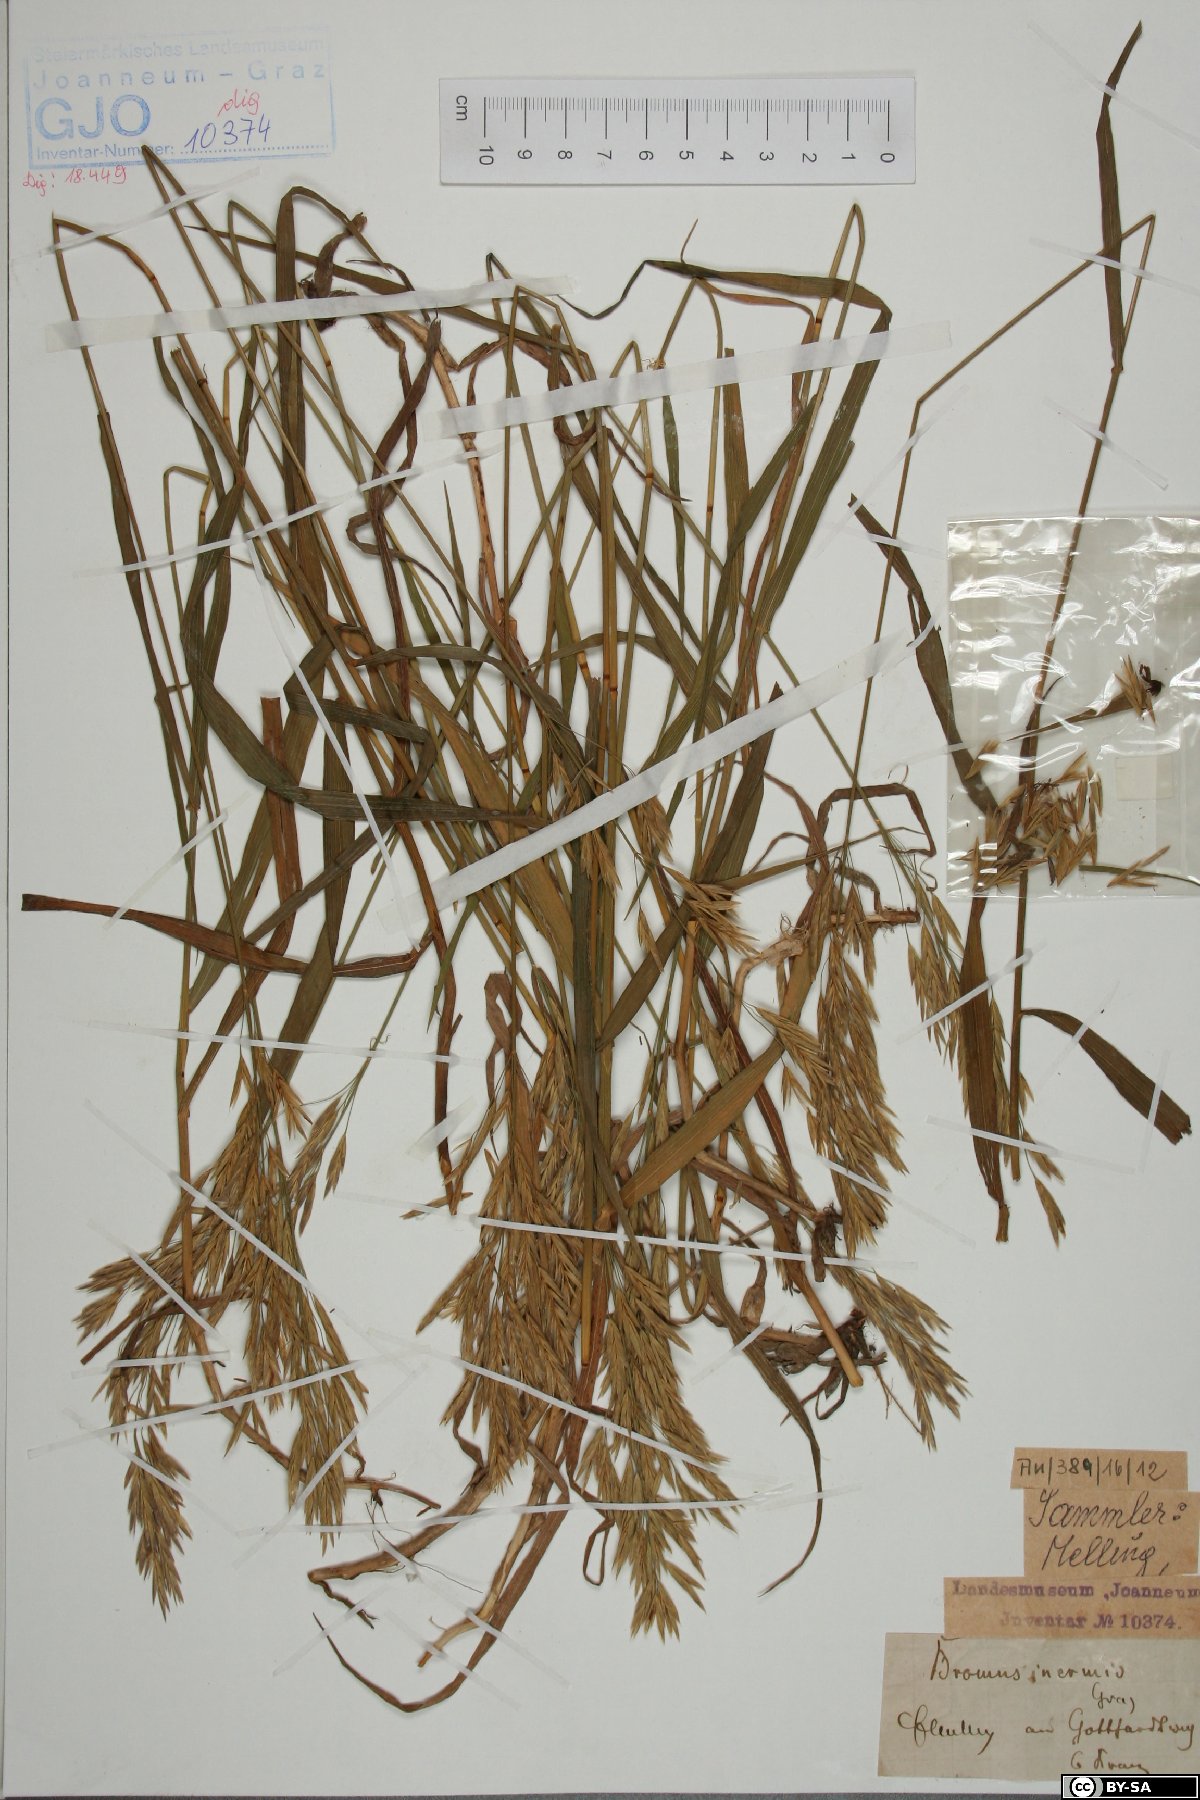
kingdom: Plantae
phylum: Tracheophyta
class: Liliopsida
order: Poales
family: Poaceae
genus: Bromus
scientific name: Bromus inermis
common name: Smooth brome
